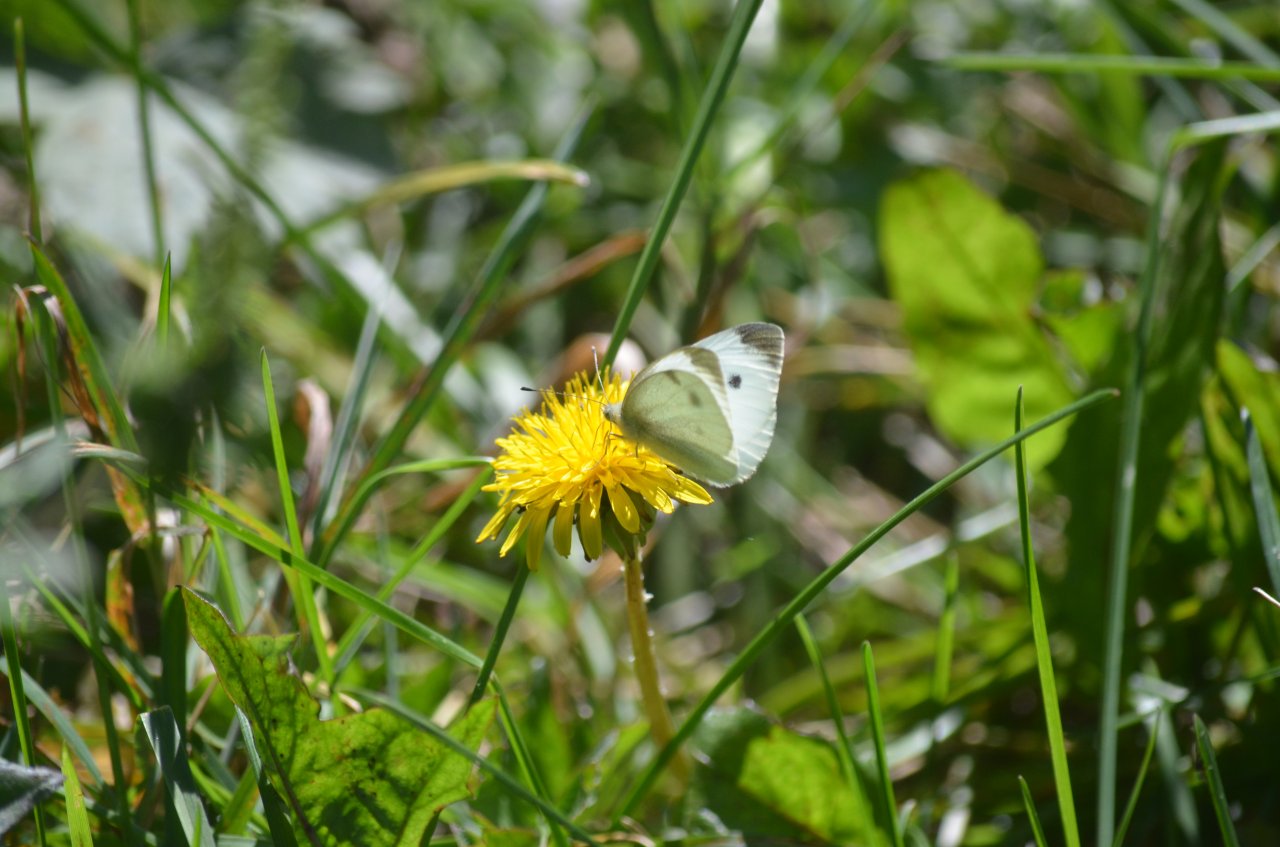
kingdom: Animalia
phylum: Arthropoda
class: Insecta
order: Lepidoptera
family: Pieridae
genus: Pieris
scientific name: Pieris rapae
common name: Cabbage White
